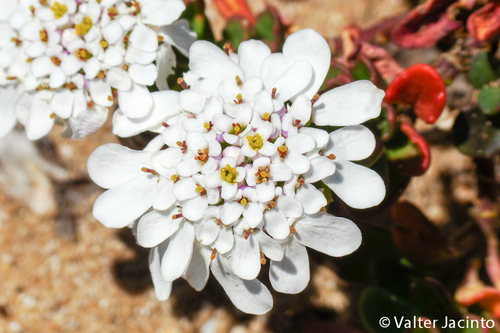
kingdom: Plantae
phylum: Tracheophyta
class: Magnoliopsida
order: Brassicales
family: Brassicaceae
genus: Iberis
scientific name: Iberis procumbens
